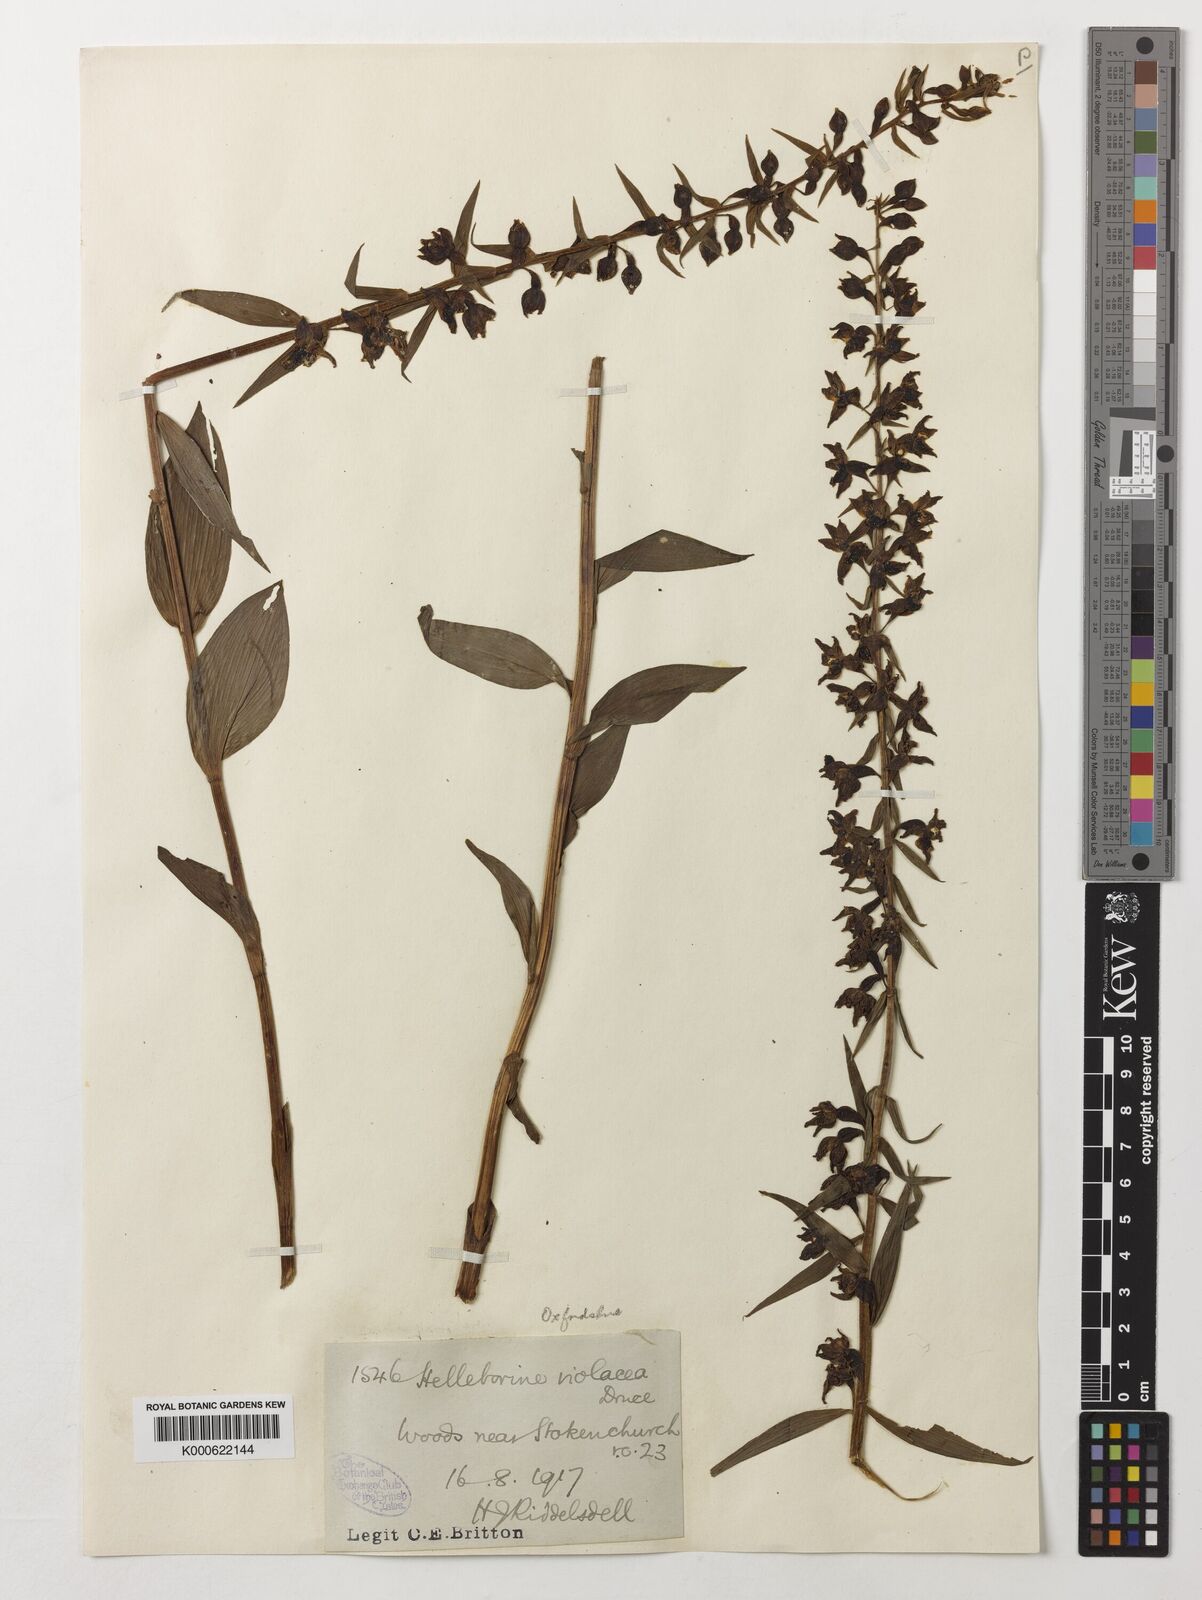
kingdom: Plantae
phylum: Tracheophyta
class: Liliopsida
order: Asparagales
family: Orchidaceae
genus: Epipactis
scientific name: Epipactis purpurata
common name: Violet helleborine
